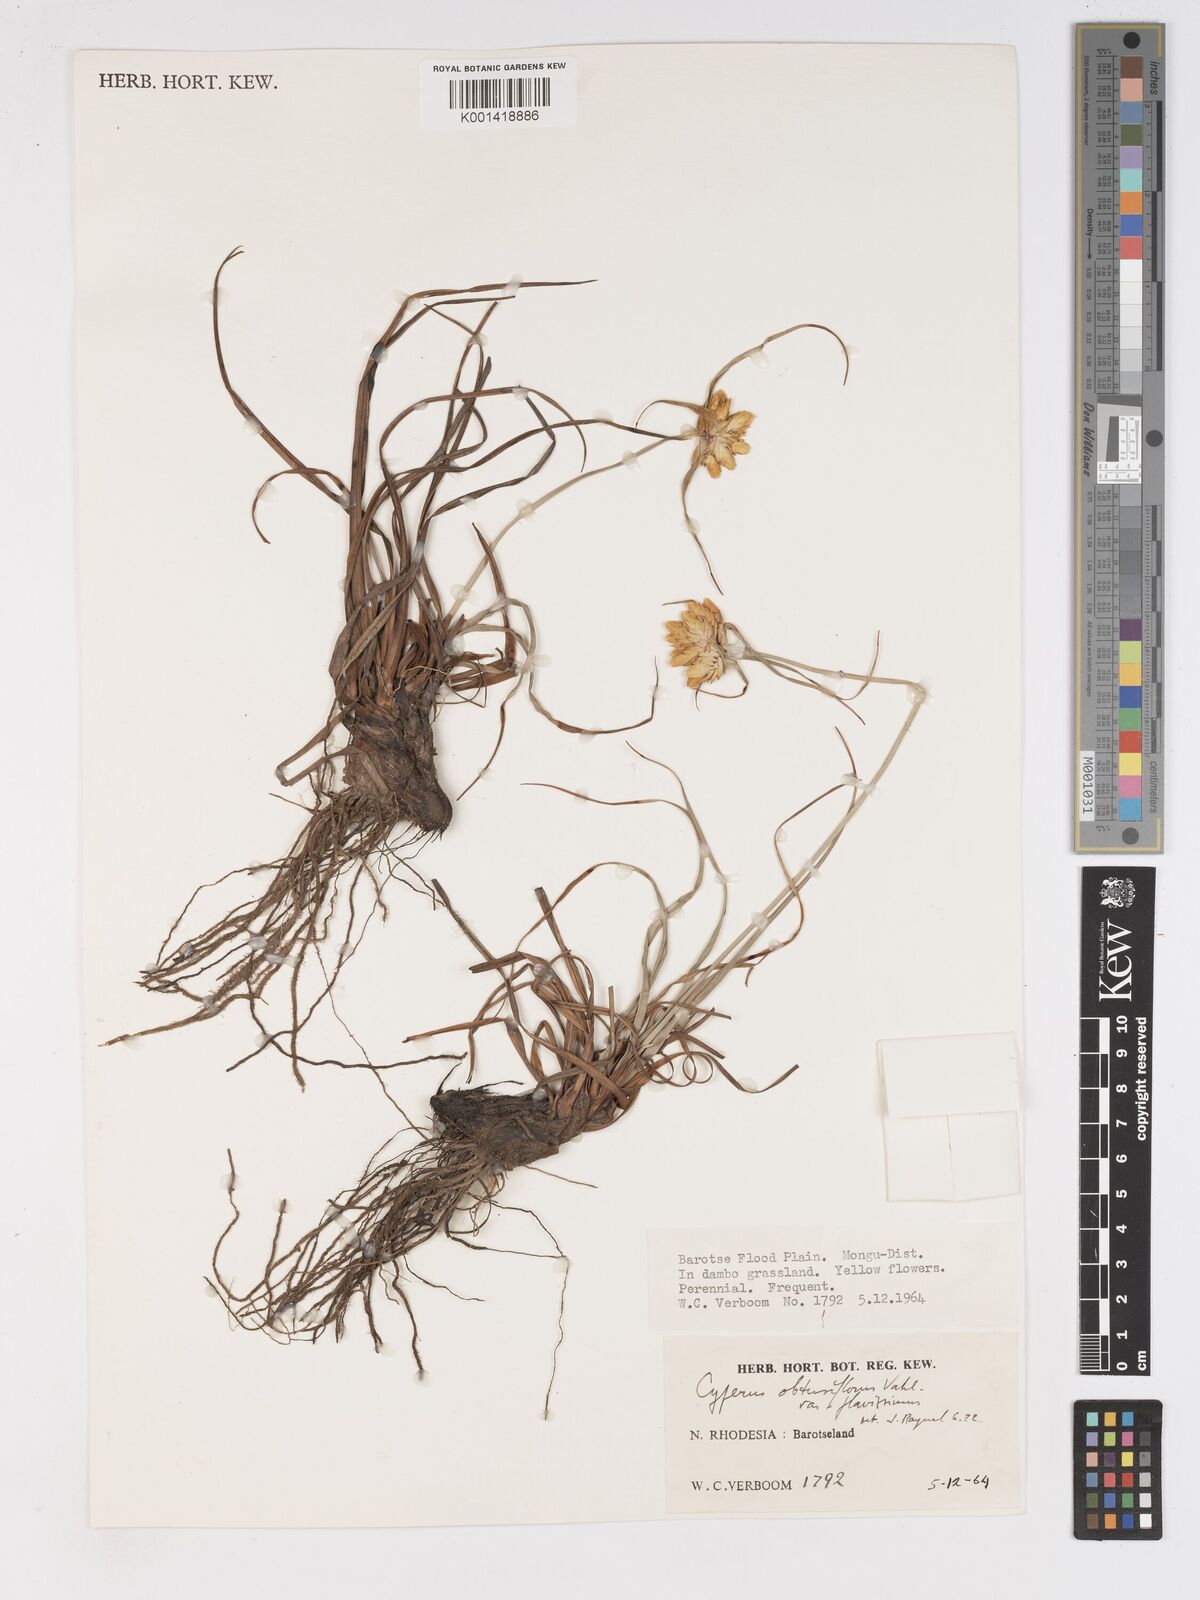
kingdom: Plantae
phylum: Tracheophyta
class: Liliopsida
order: Poales
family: Cyperaceae
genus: Cyperus
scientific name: Cyperus sphaerocephalus
